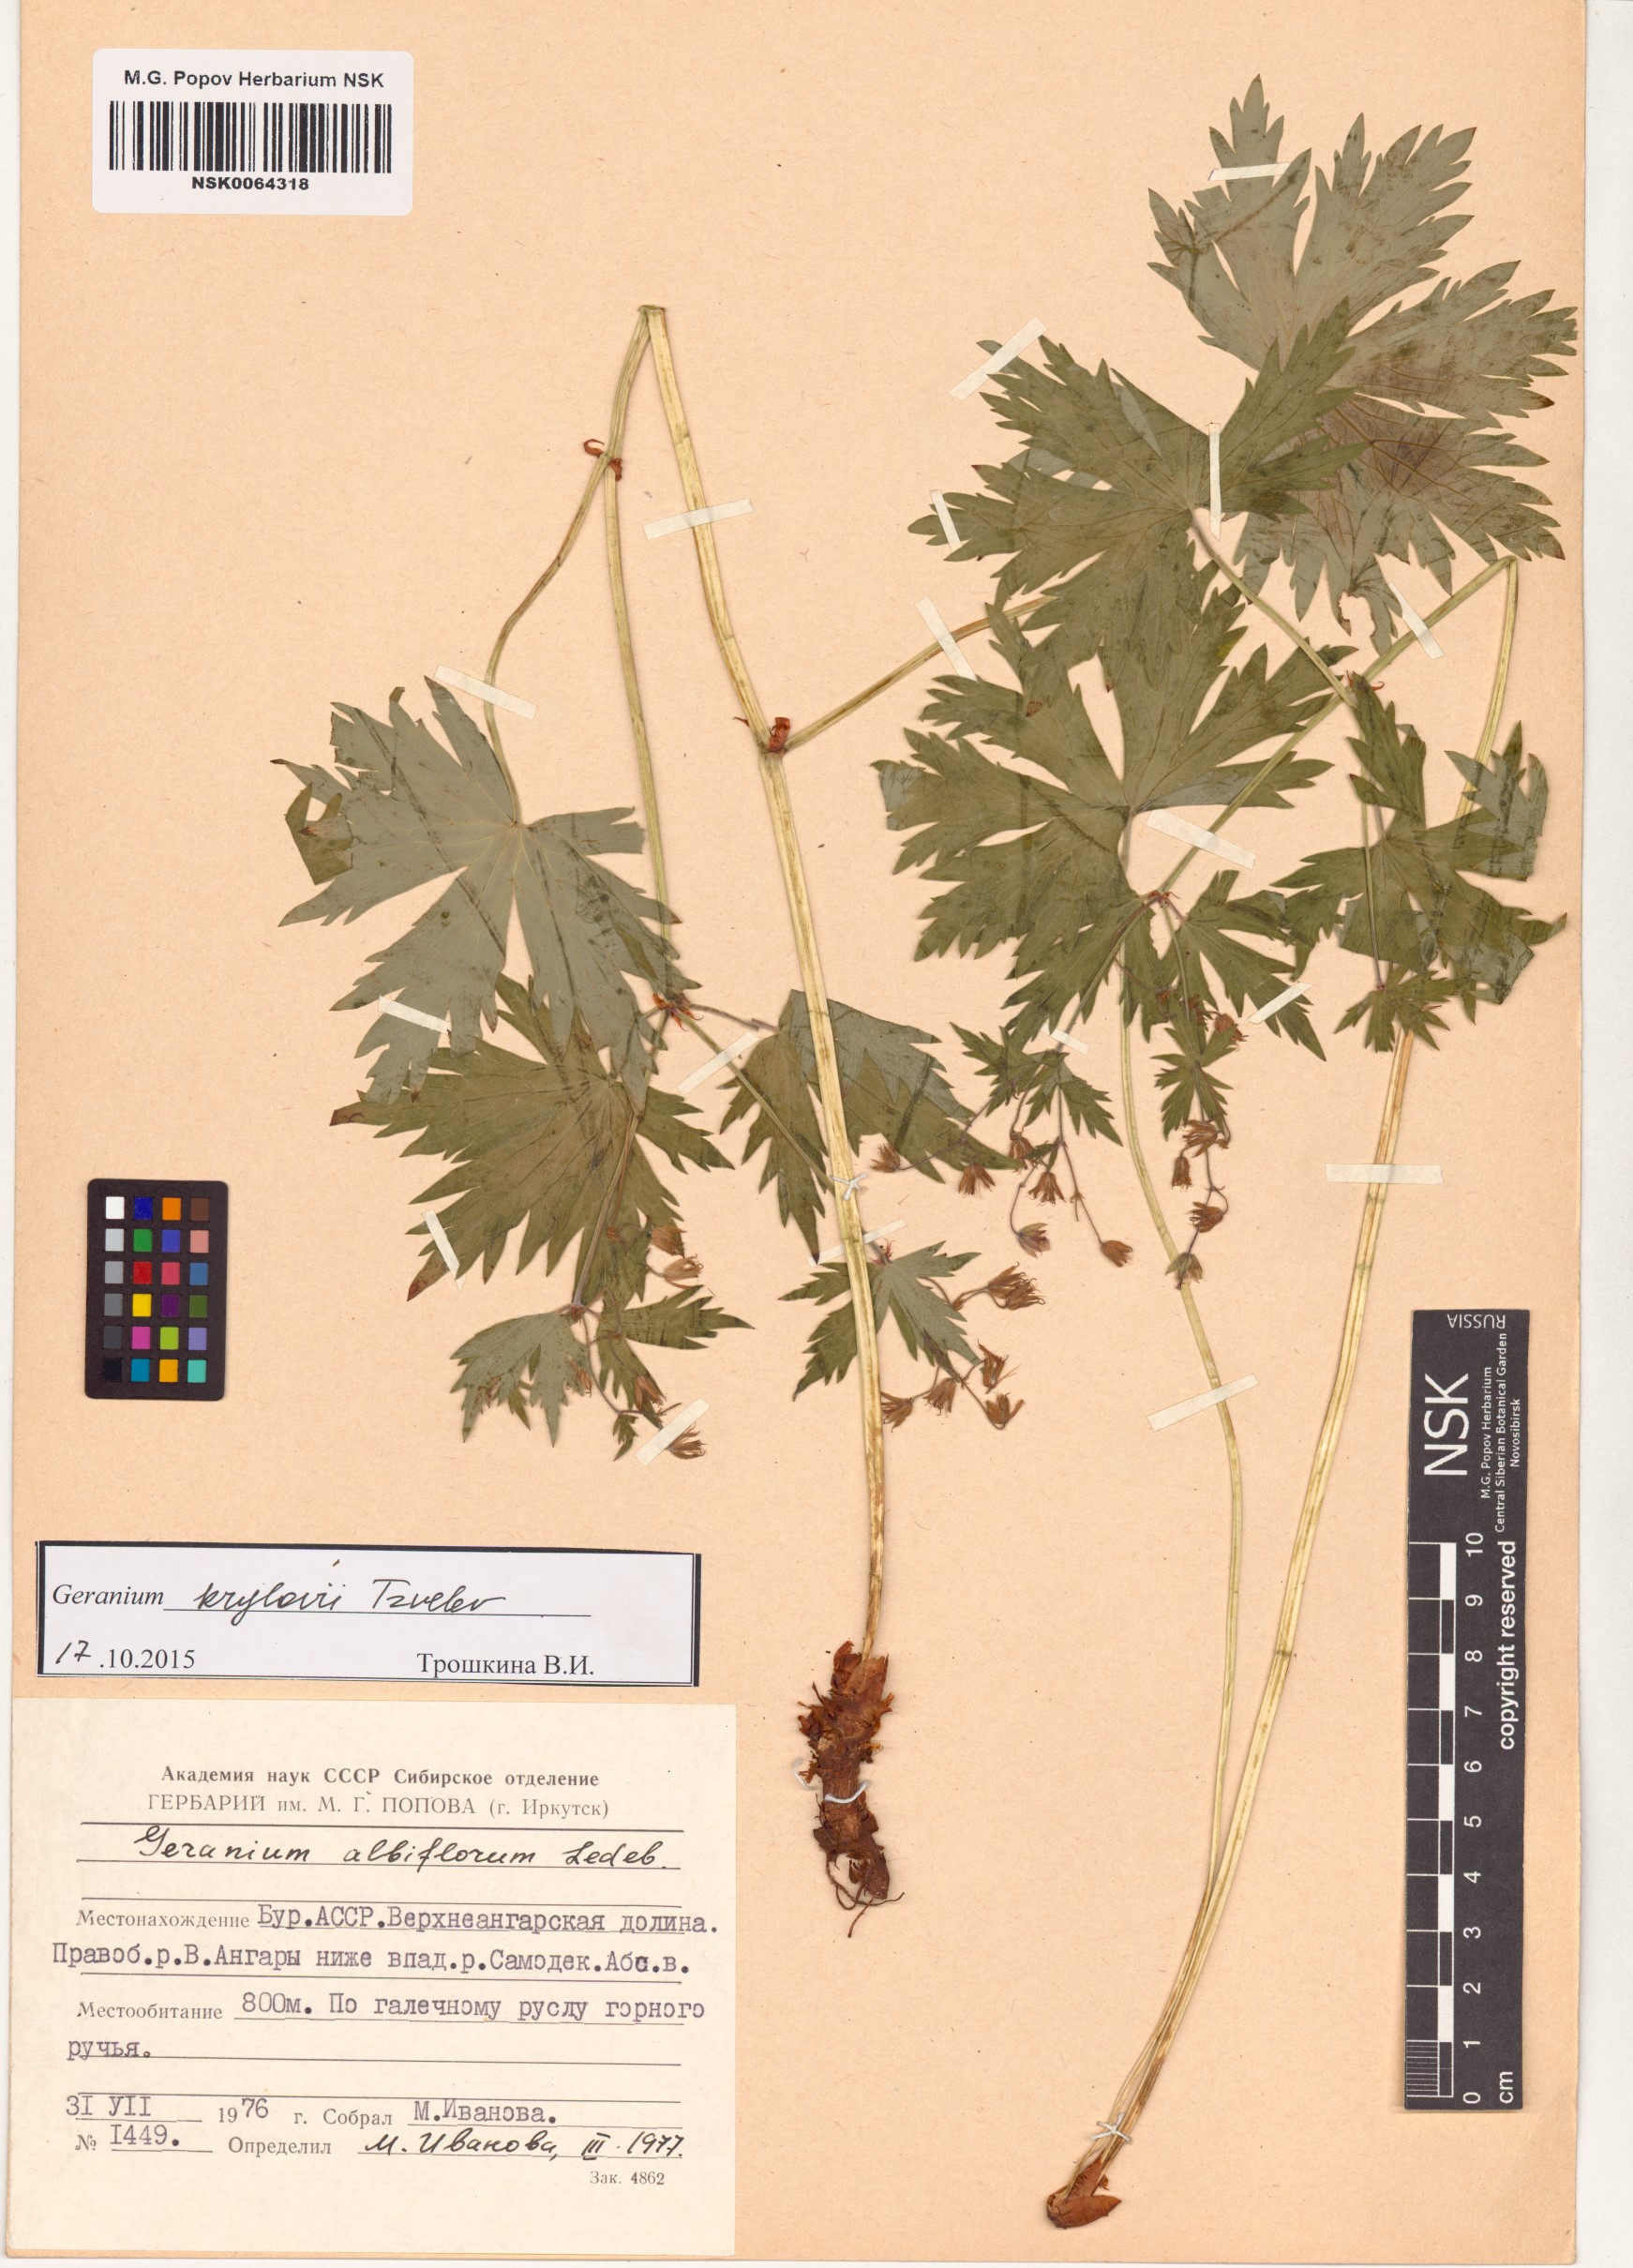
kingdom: Plantae
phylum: Tracheophyta
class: Magnoliopsida
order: Geraniales
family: Geraniaceae
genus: Geranium
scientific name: Geranium sylvaticum
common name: Wood crane's-bill
